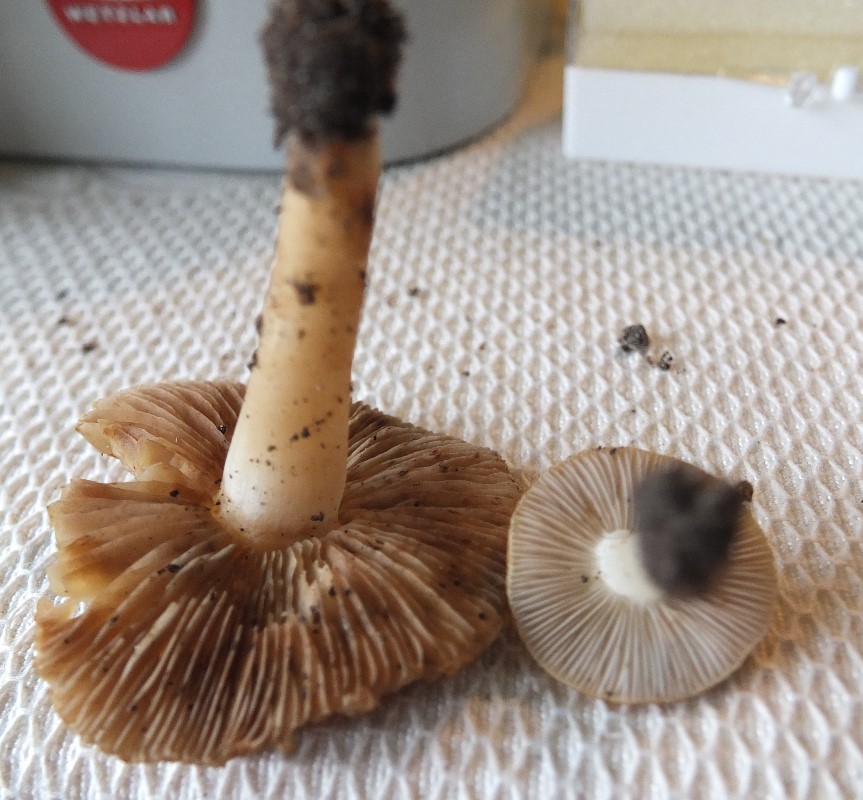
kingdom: Fungi
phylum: Basidiomycota
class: Agaricomycetes
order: Agaricales
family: Inocybaceae
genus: Inocybe
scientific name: Inocybe
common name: trævlhat
